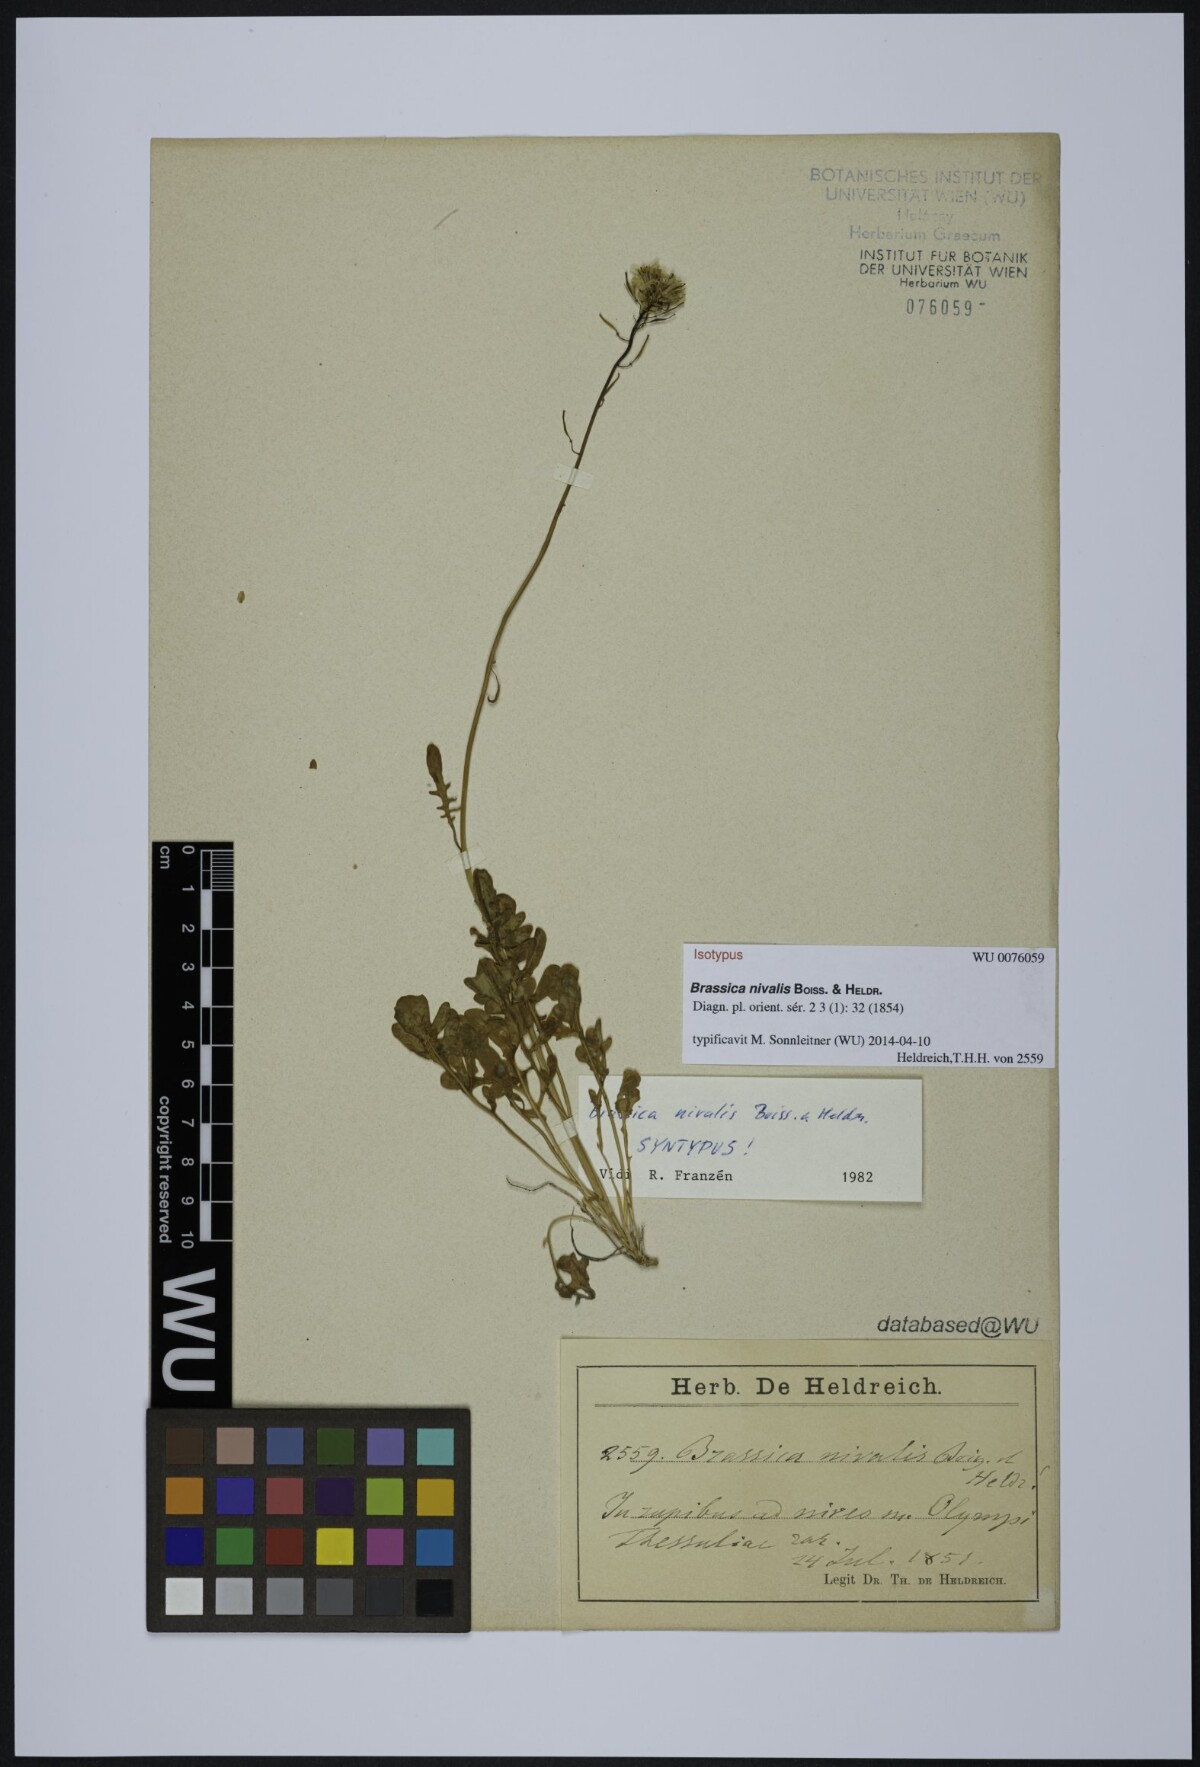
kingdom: Plantae
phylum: Tracheophyta
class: Magnoliopsida
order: Brassicales
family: Brassicaceae
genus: Brassica
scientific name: Brassica nivalis
